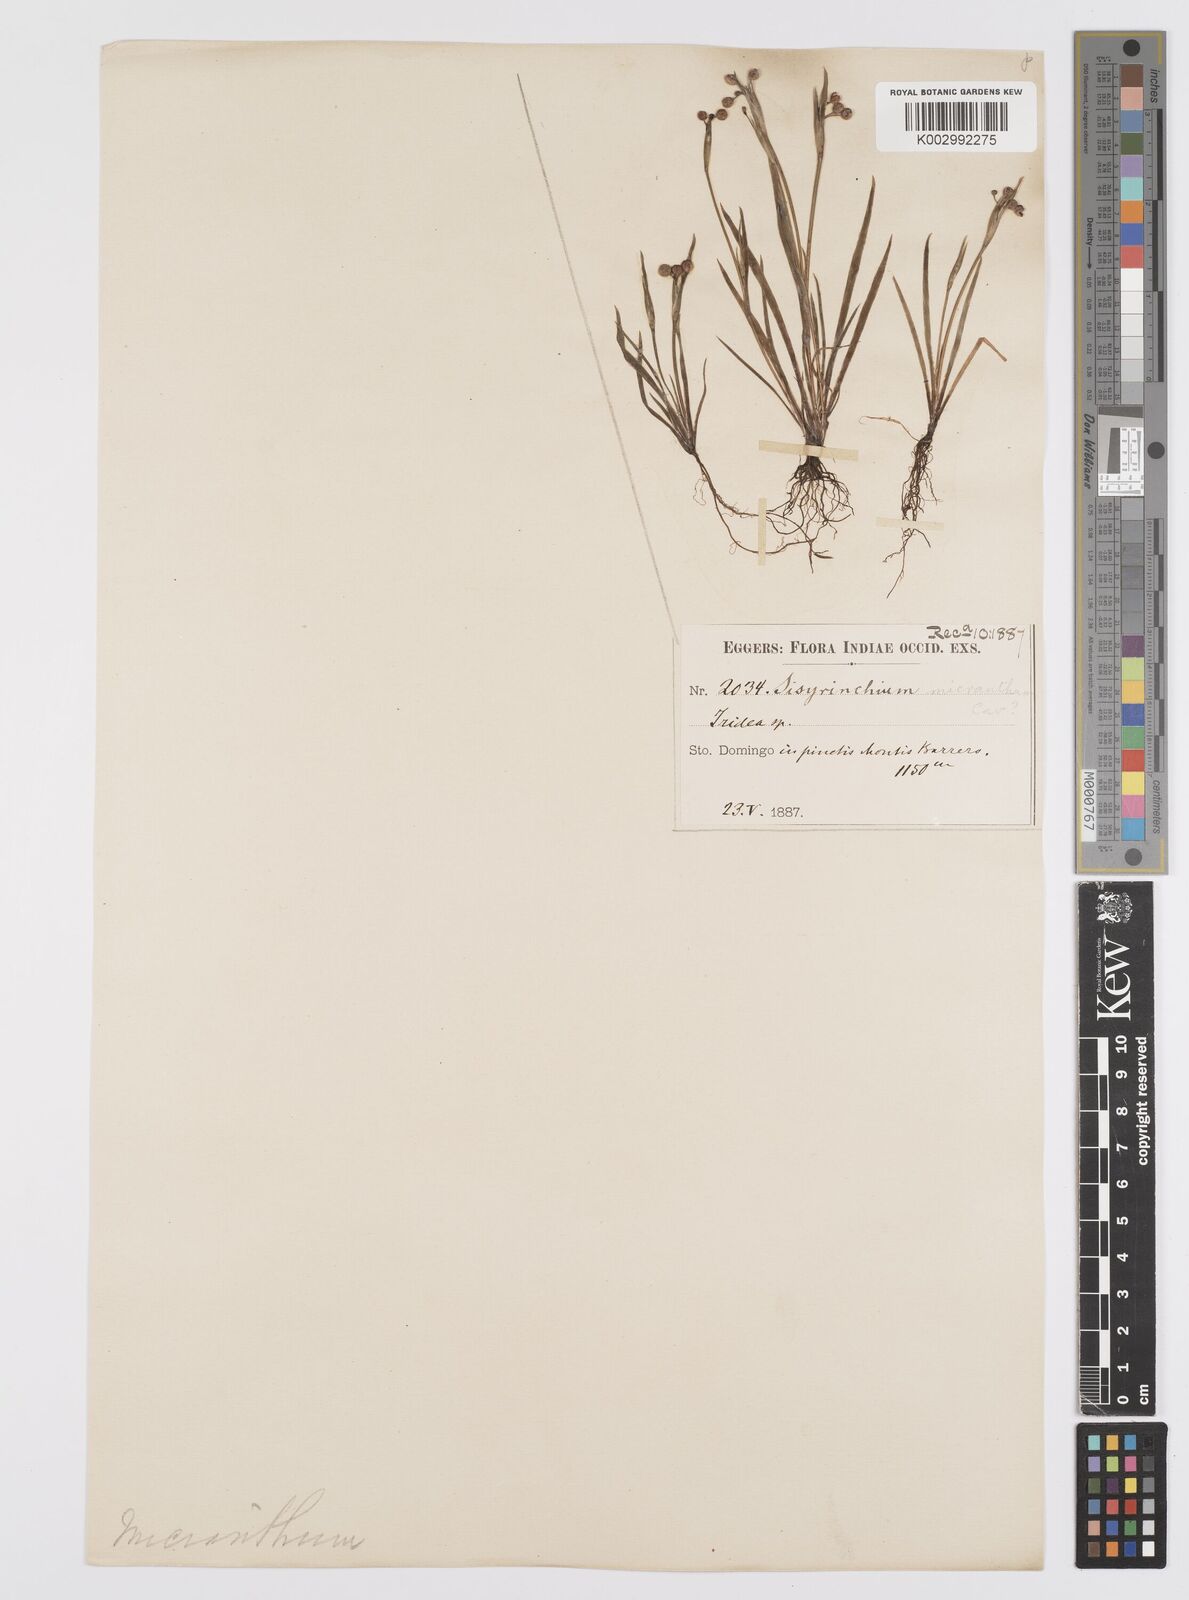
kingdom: Plantae
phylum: Tracheophyta
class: Liliopsida
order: Asparagales
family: Iridaceae
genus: Sisyrinchium
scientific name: Sisyrinchium micranthum
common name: Bermuda pigroot
